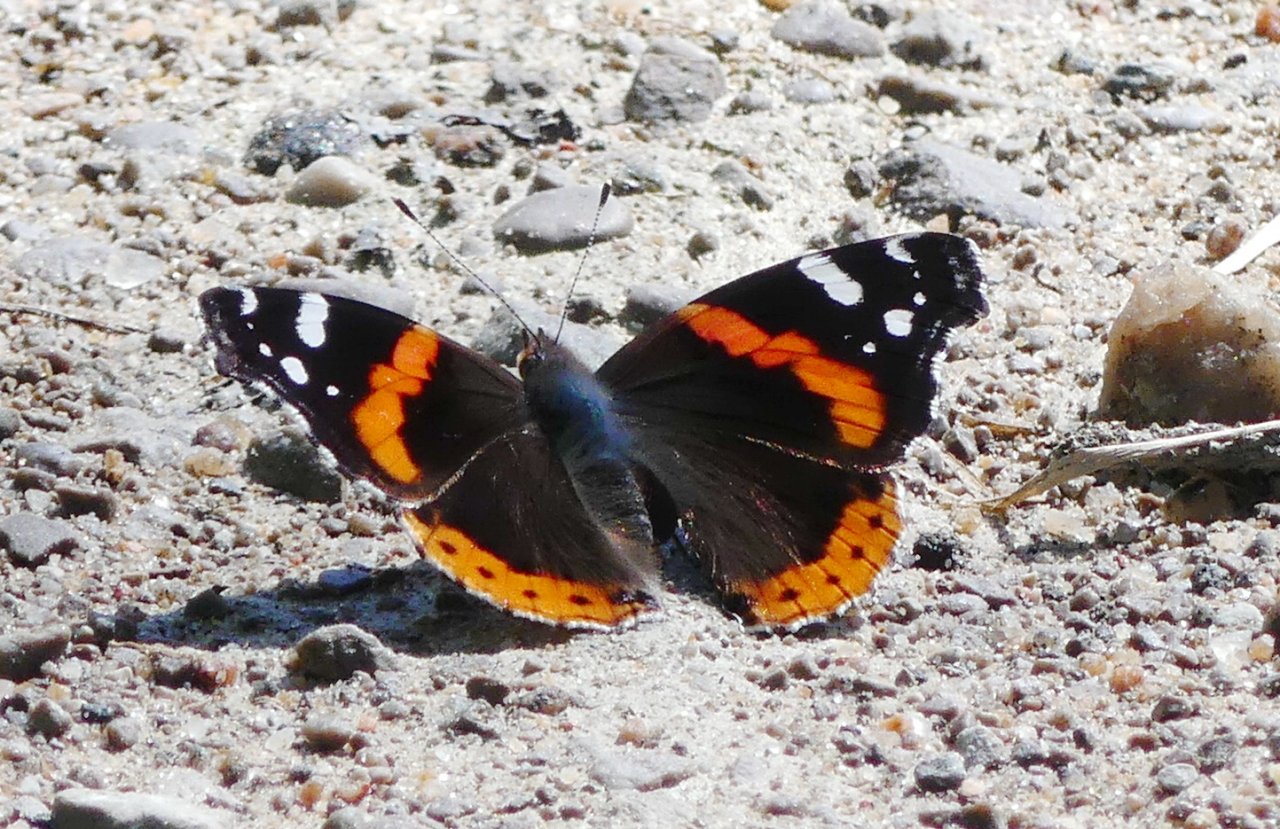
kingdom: Animalia
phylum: Arthropoda
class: Insecta
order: Lepidoptera
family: Nymphalidae
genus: Vanessa
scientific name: Vanessa atalanta
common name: Red Admiral
